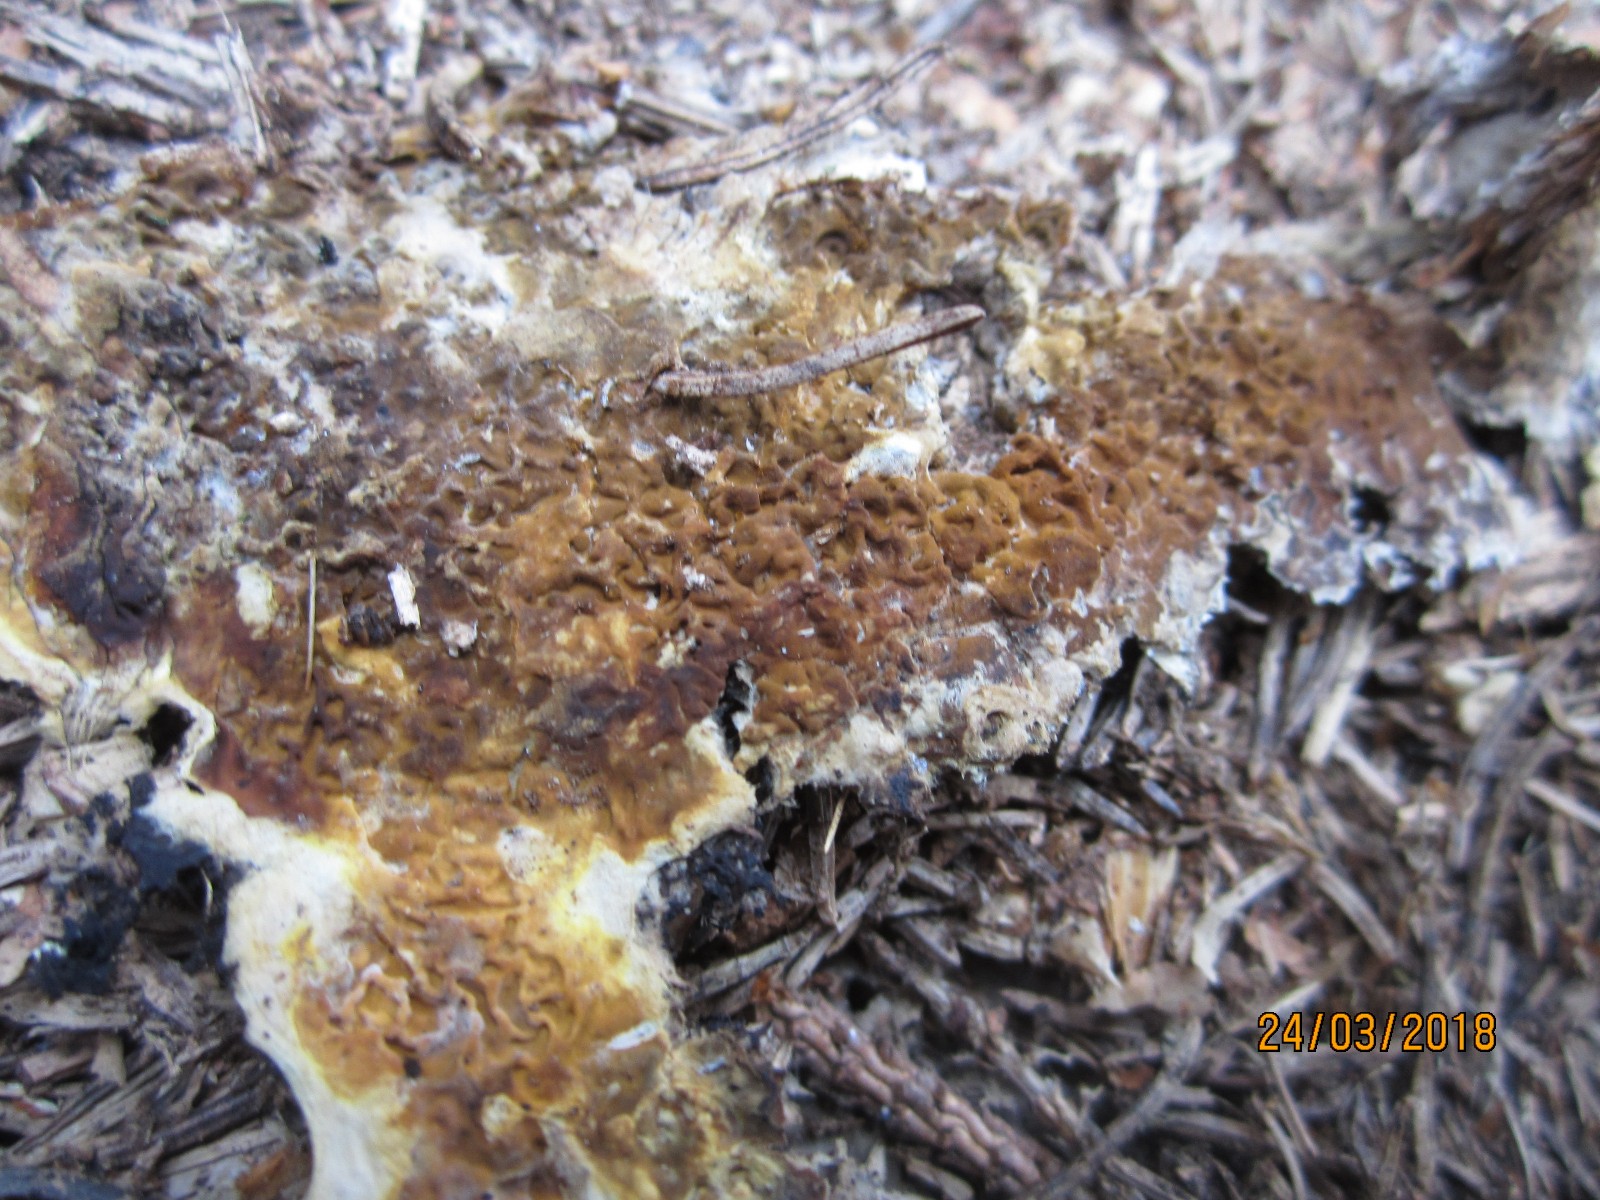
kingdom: Fungi
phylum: Basidiomycota
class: Agaricomycetes
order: Boletales
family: Serpulaceae
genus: Serpula
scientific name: Serpula himantioides
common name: tyndkødet hussvamp
